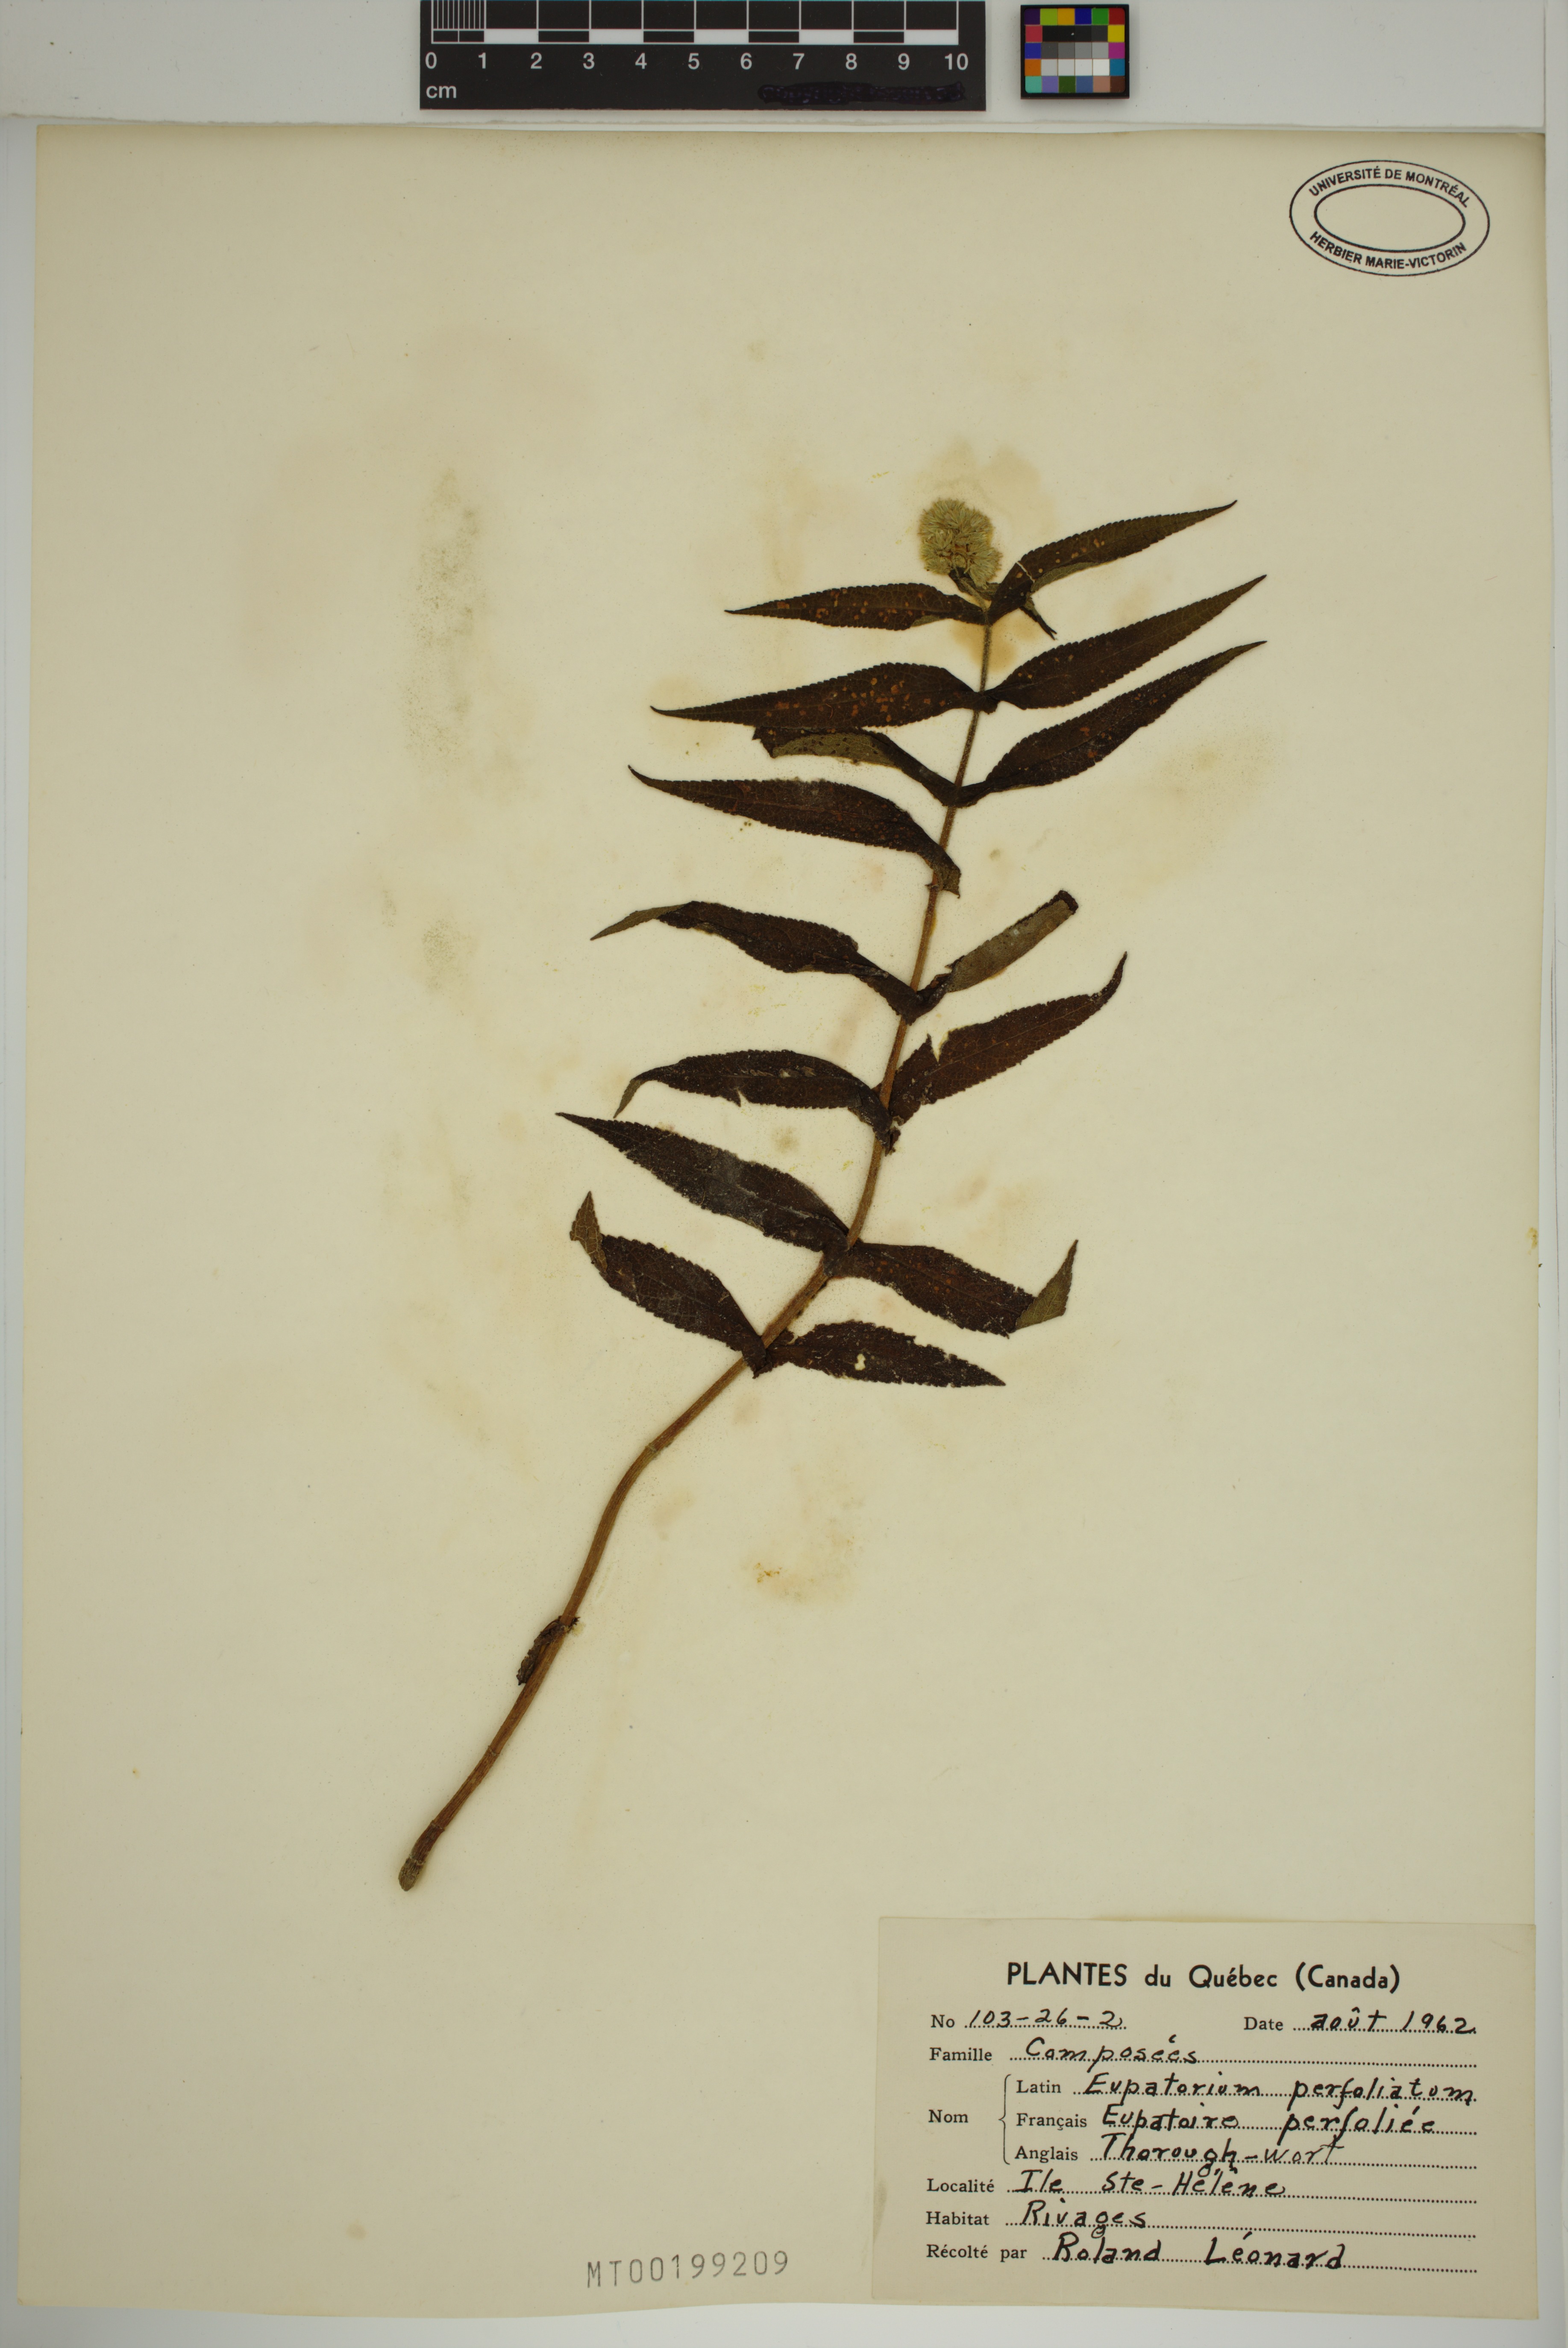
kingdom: Plantae
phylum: Tracheophyta
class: Magnoliopsida
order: Asterales
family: Asteraceae
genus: Eupatorium
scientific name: Eupatorium perfoliatum
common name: Boneset
